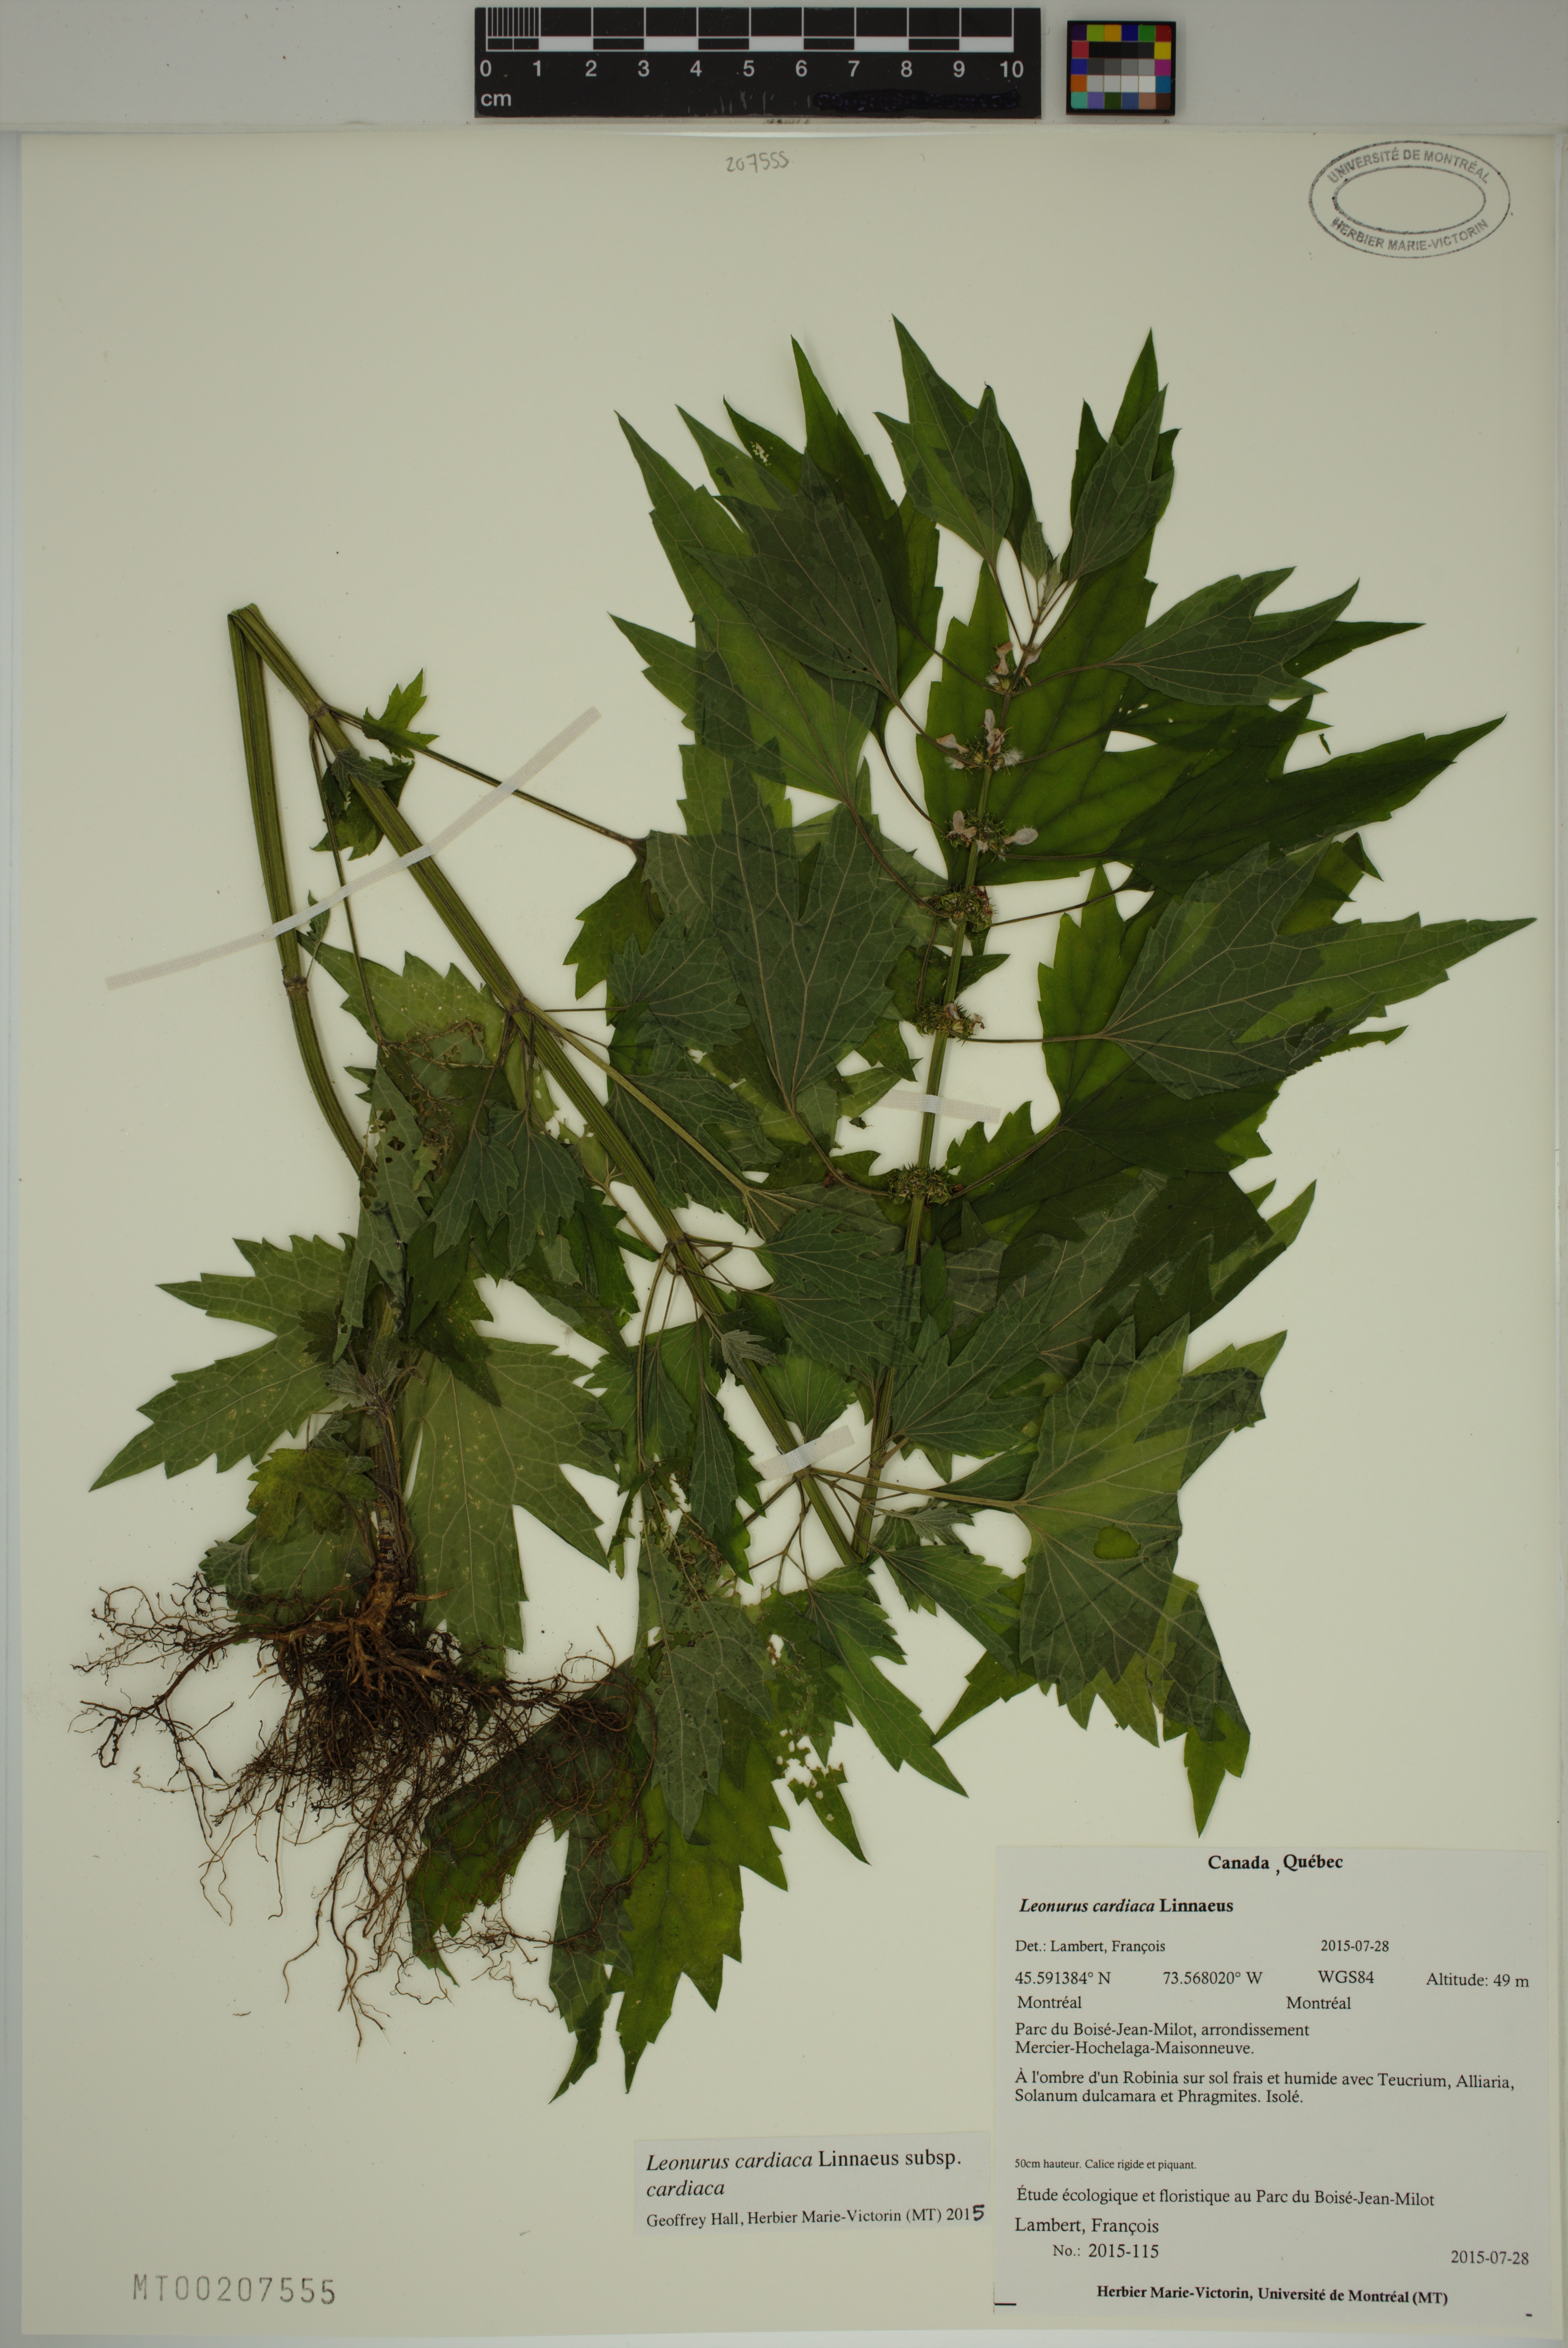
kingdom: Plantae
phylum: Tracheophyta
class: Magnoliopsida
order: Lamiales
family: Lamiaceae
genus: Leonurus
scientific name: Leonurus cardiaca
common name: Motherwort
